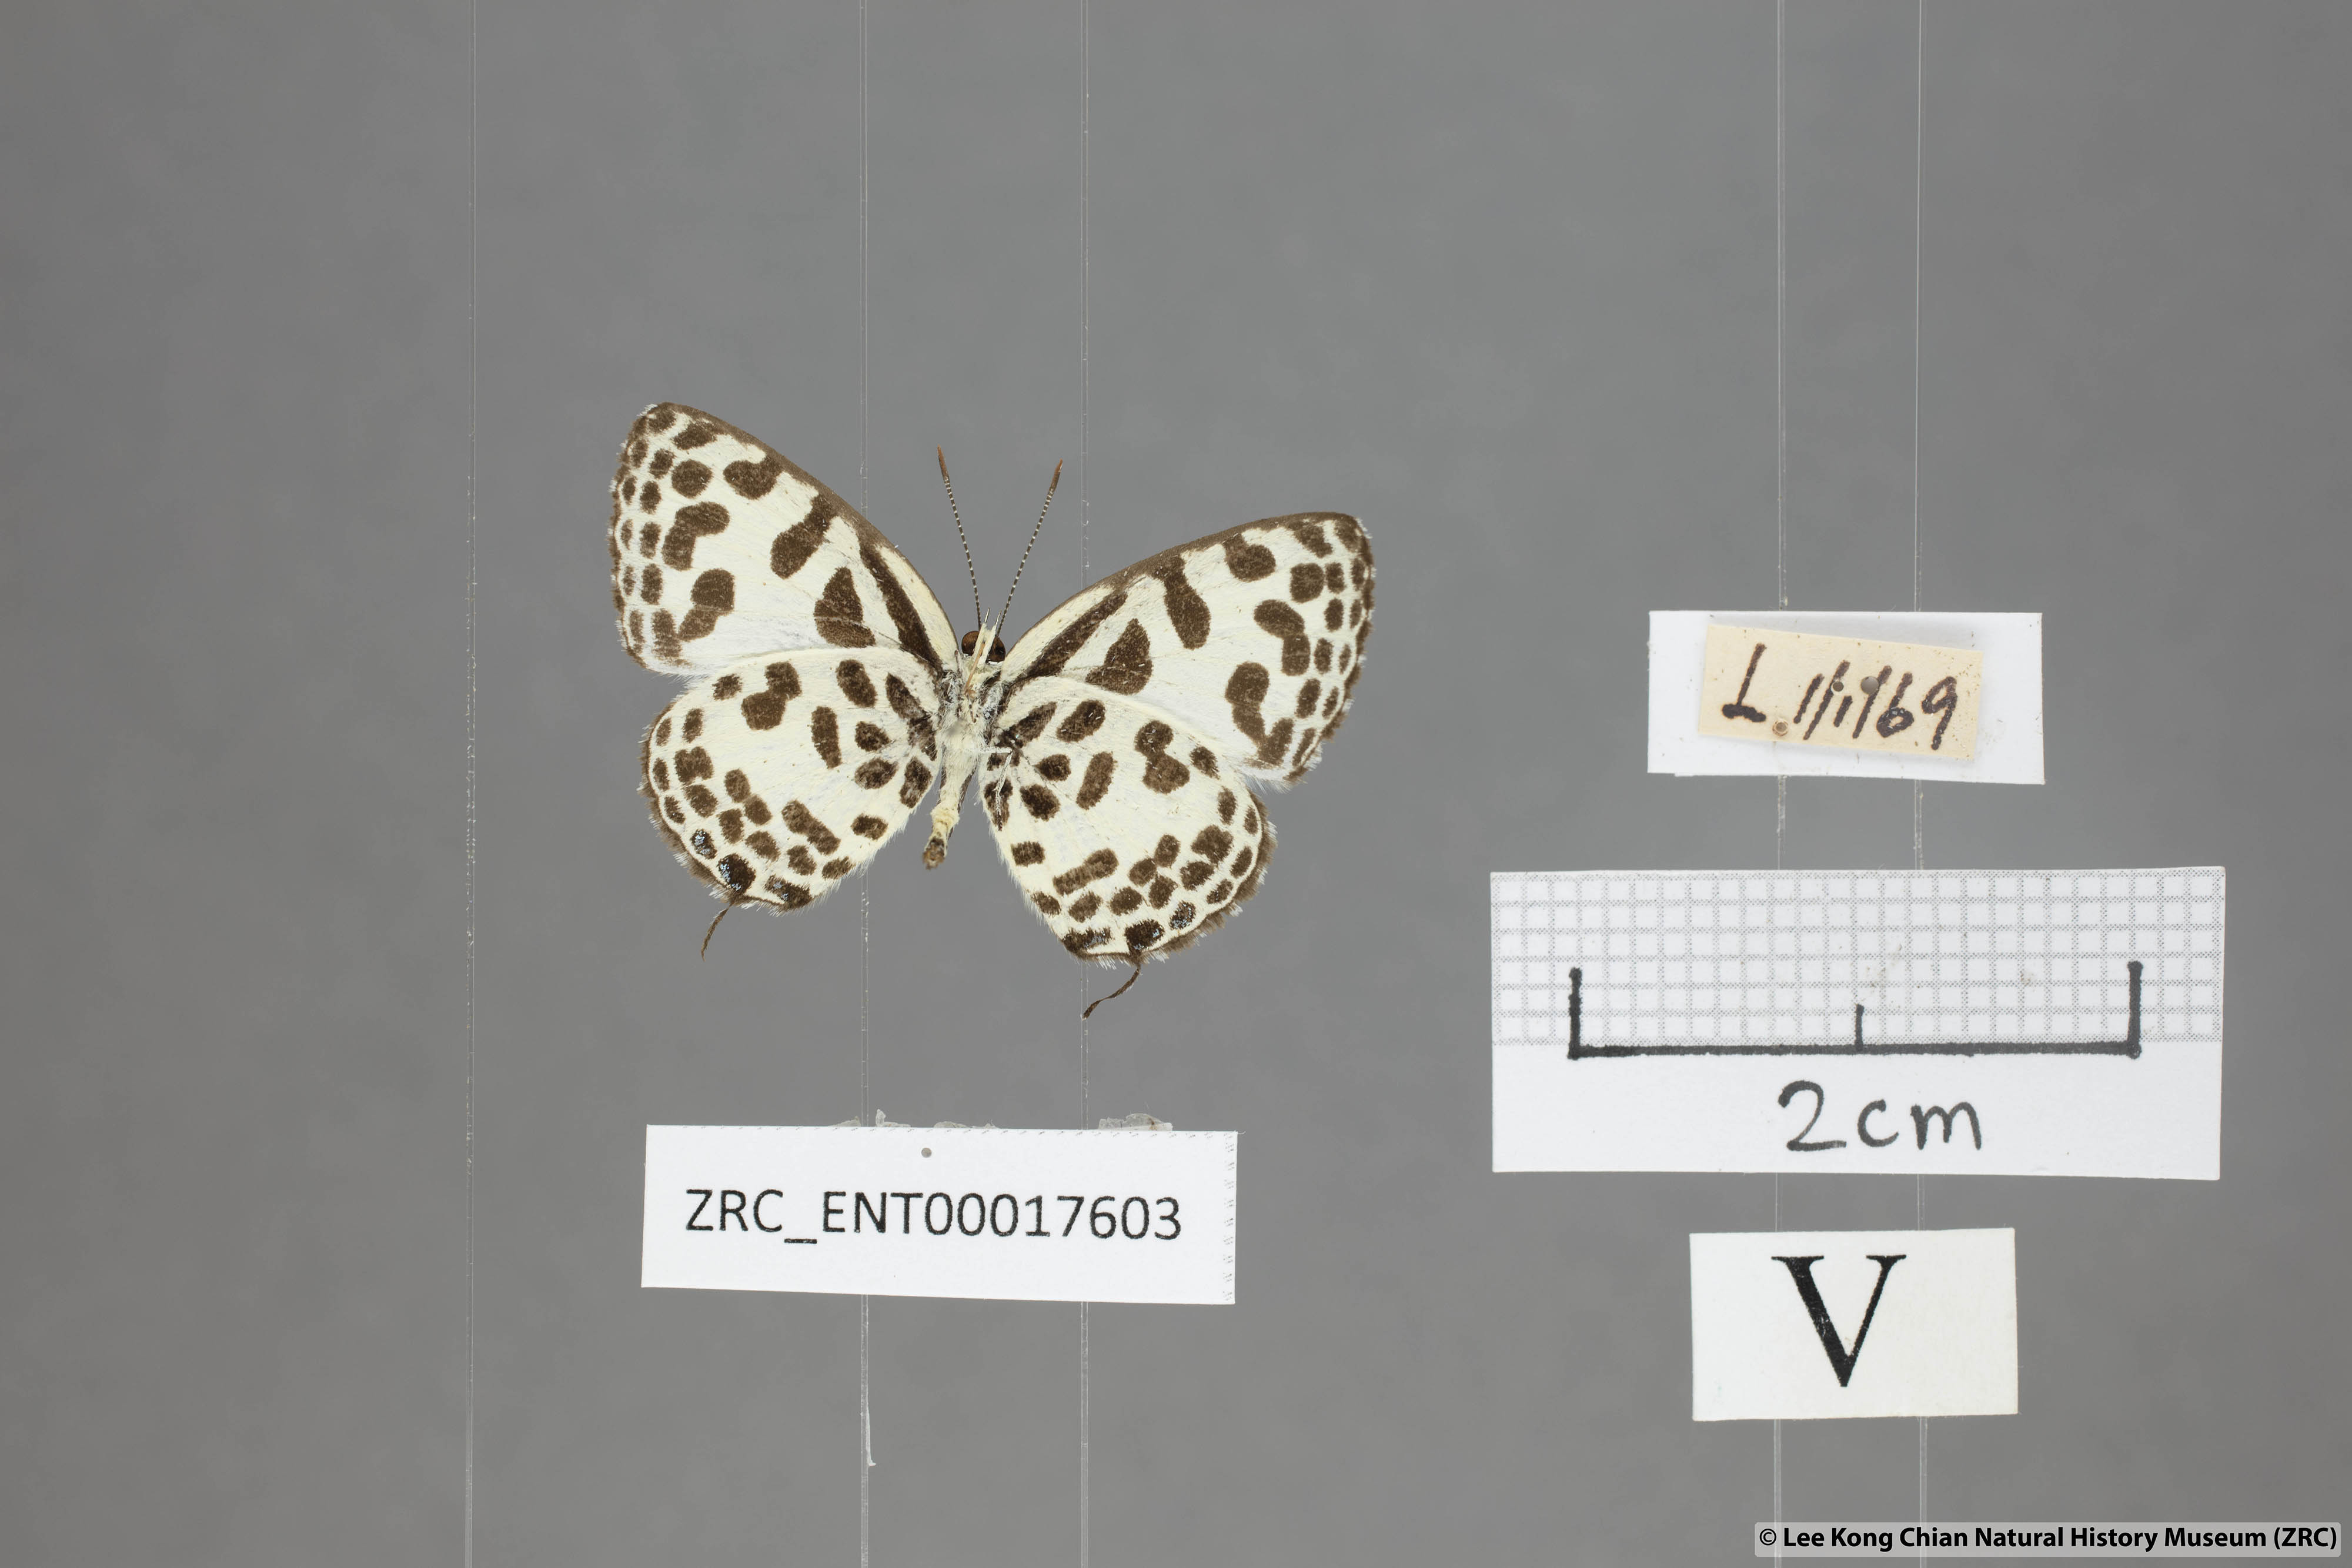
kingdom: Animalia
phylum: Arthropoda
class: Insecta
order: Lepidoptera
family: Lycaenidae
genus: Castalius
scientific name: Castalius rosimon
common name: Common pierrot
